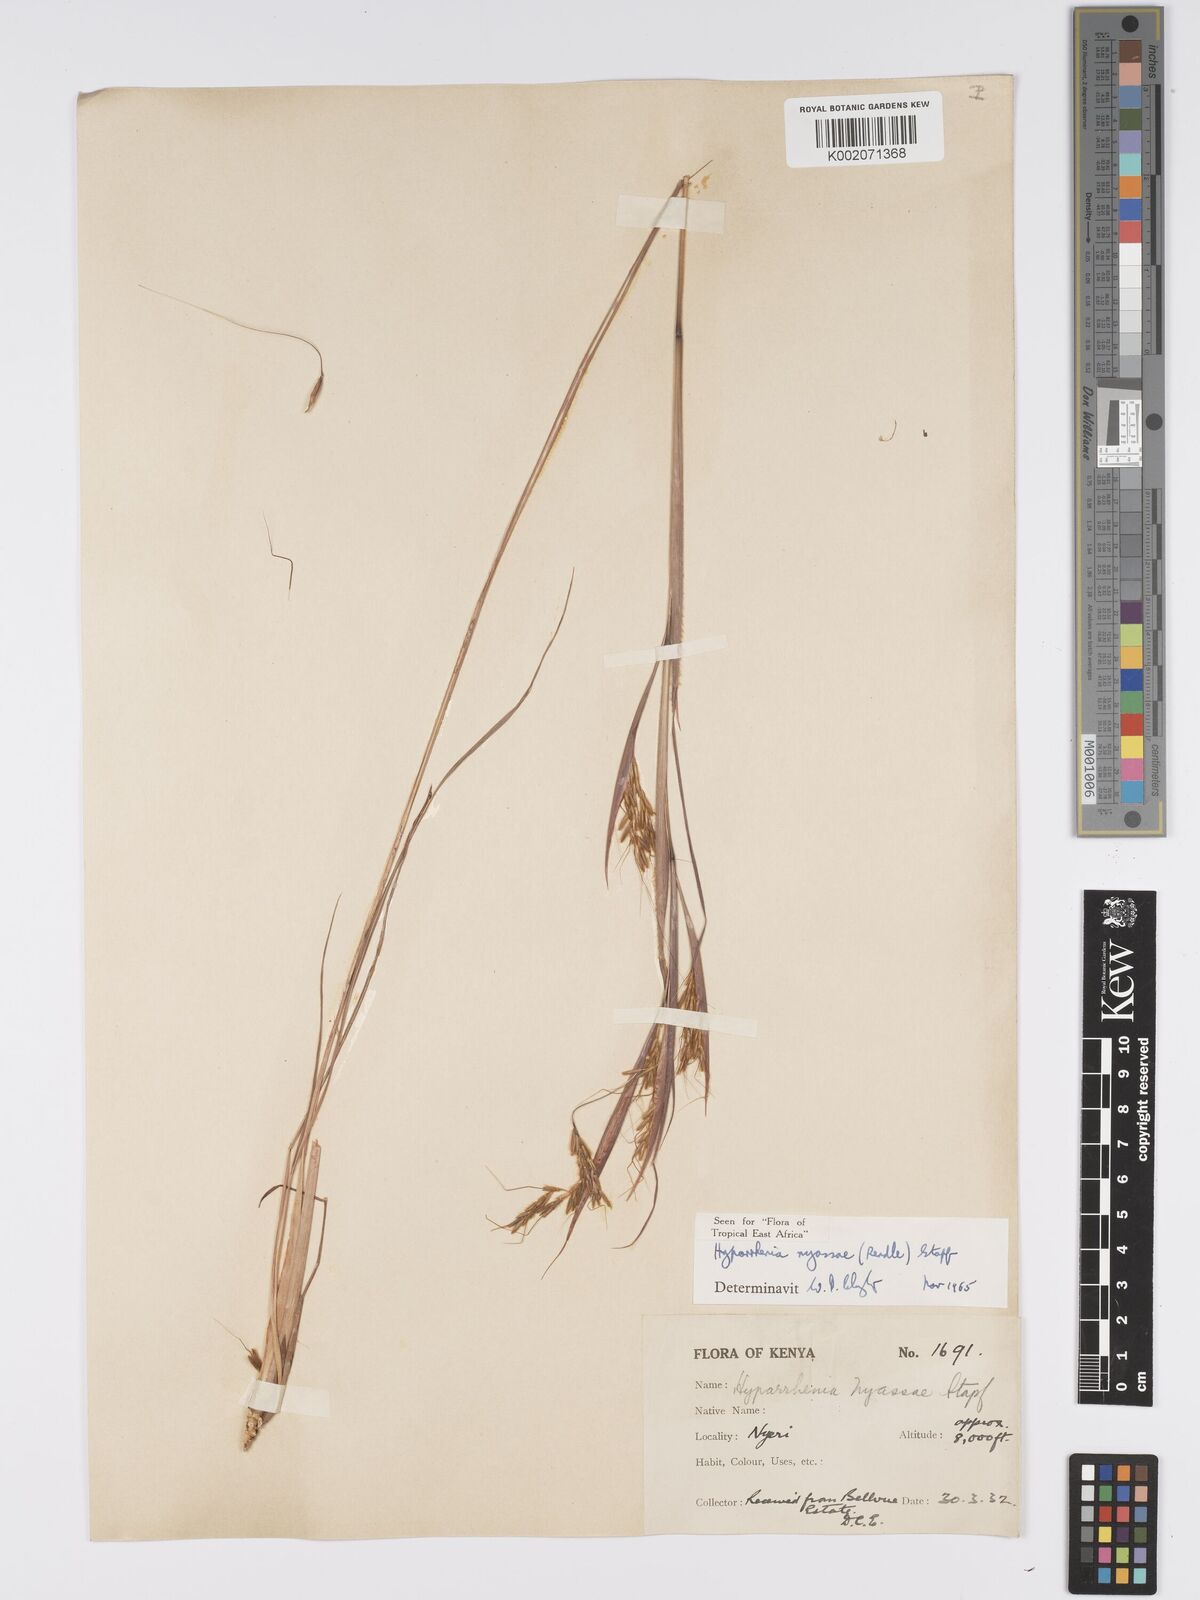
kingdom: Plantae
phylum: Tracheophyta
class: Liliopsida
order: Poales
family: Poaceae
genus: Hyparrhenia
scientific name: Hyparrhenia nyassae
